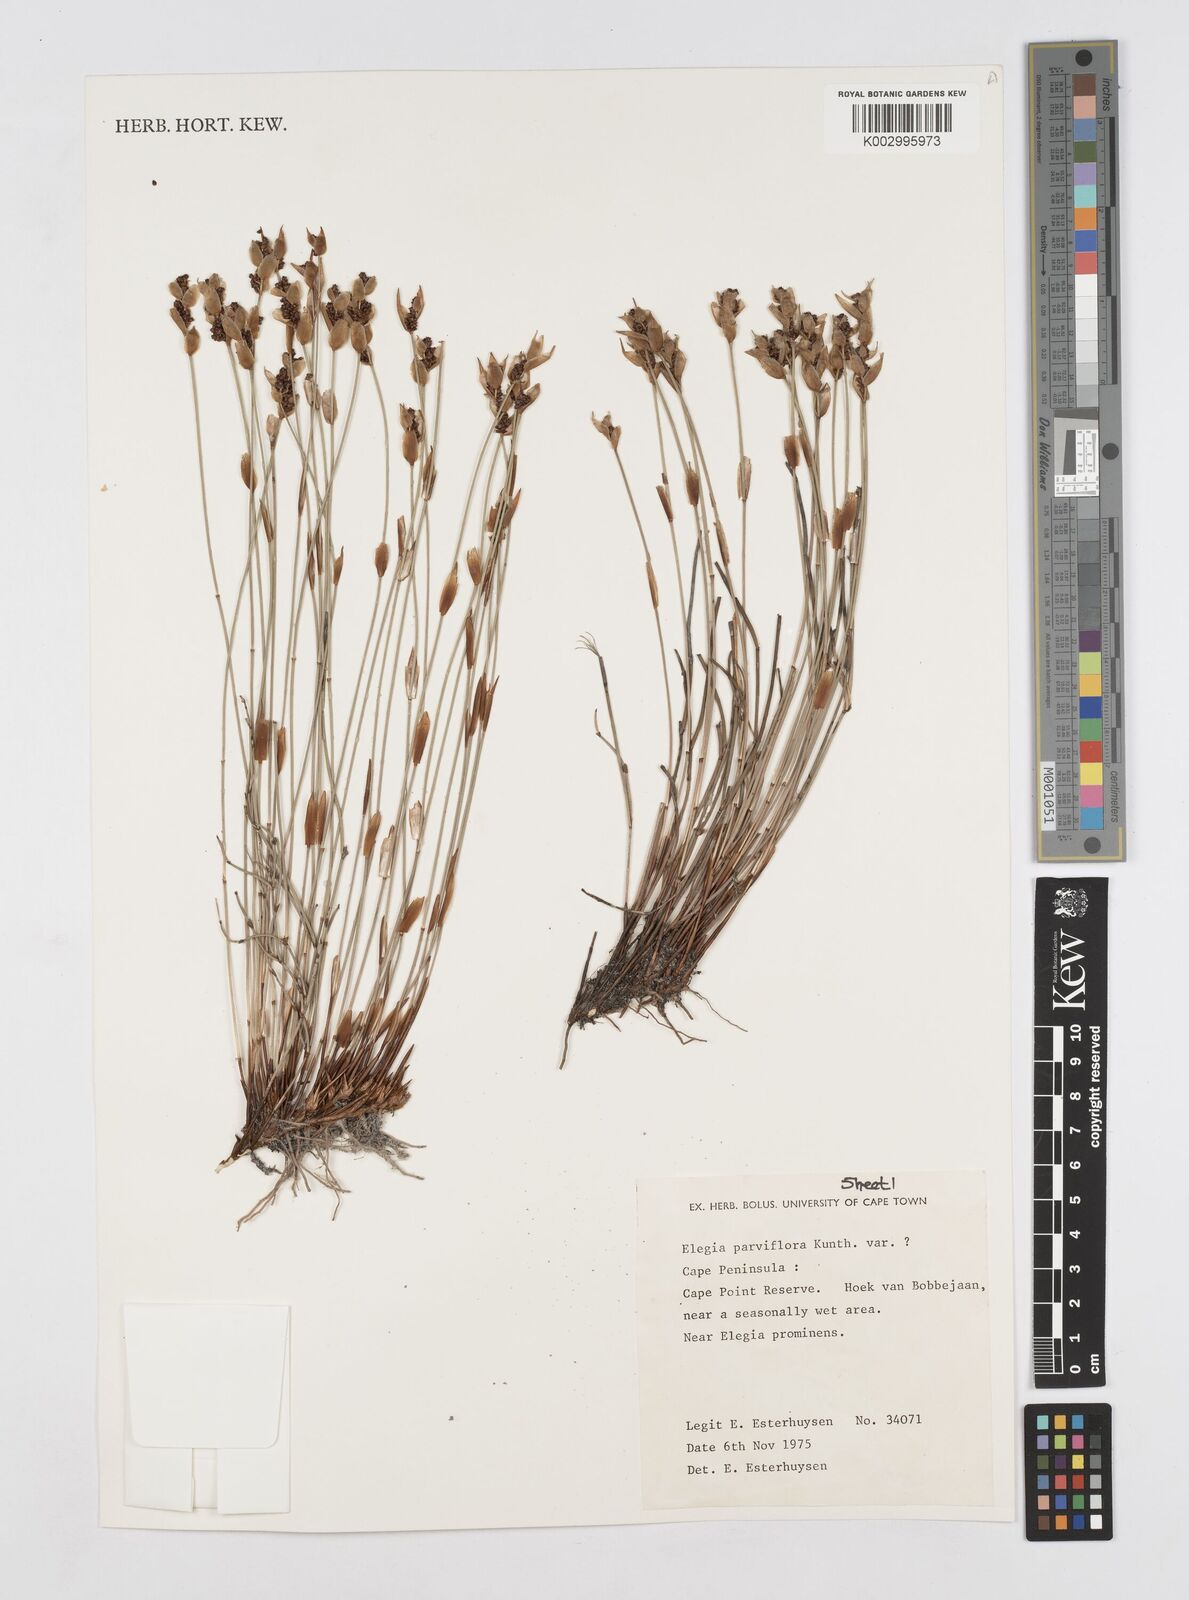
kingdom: Plantae
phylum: Tracheophyta
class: Liliopsida
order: Poales
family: Restionaceae
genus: Cannomois
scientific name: Cannomois parviflora
